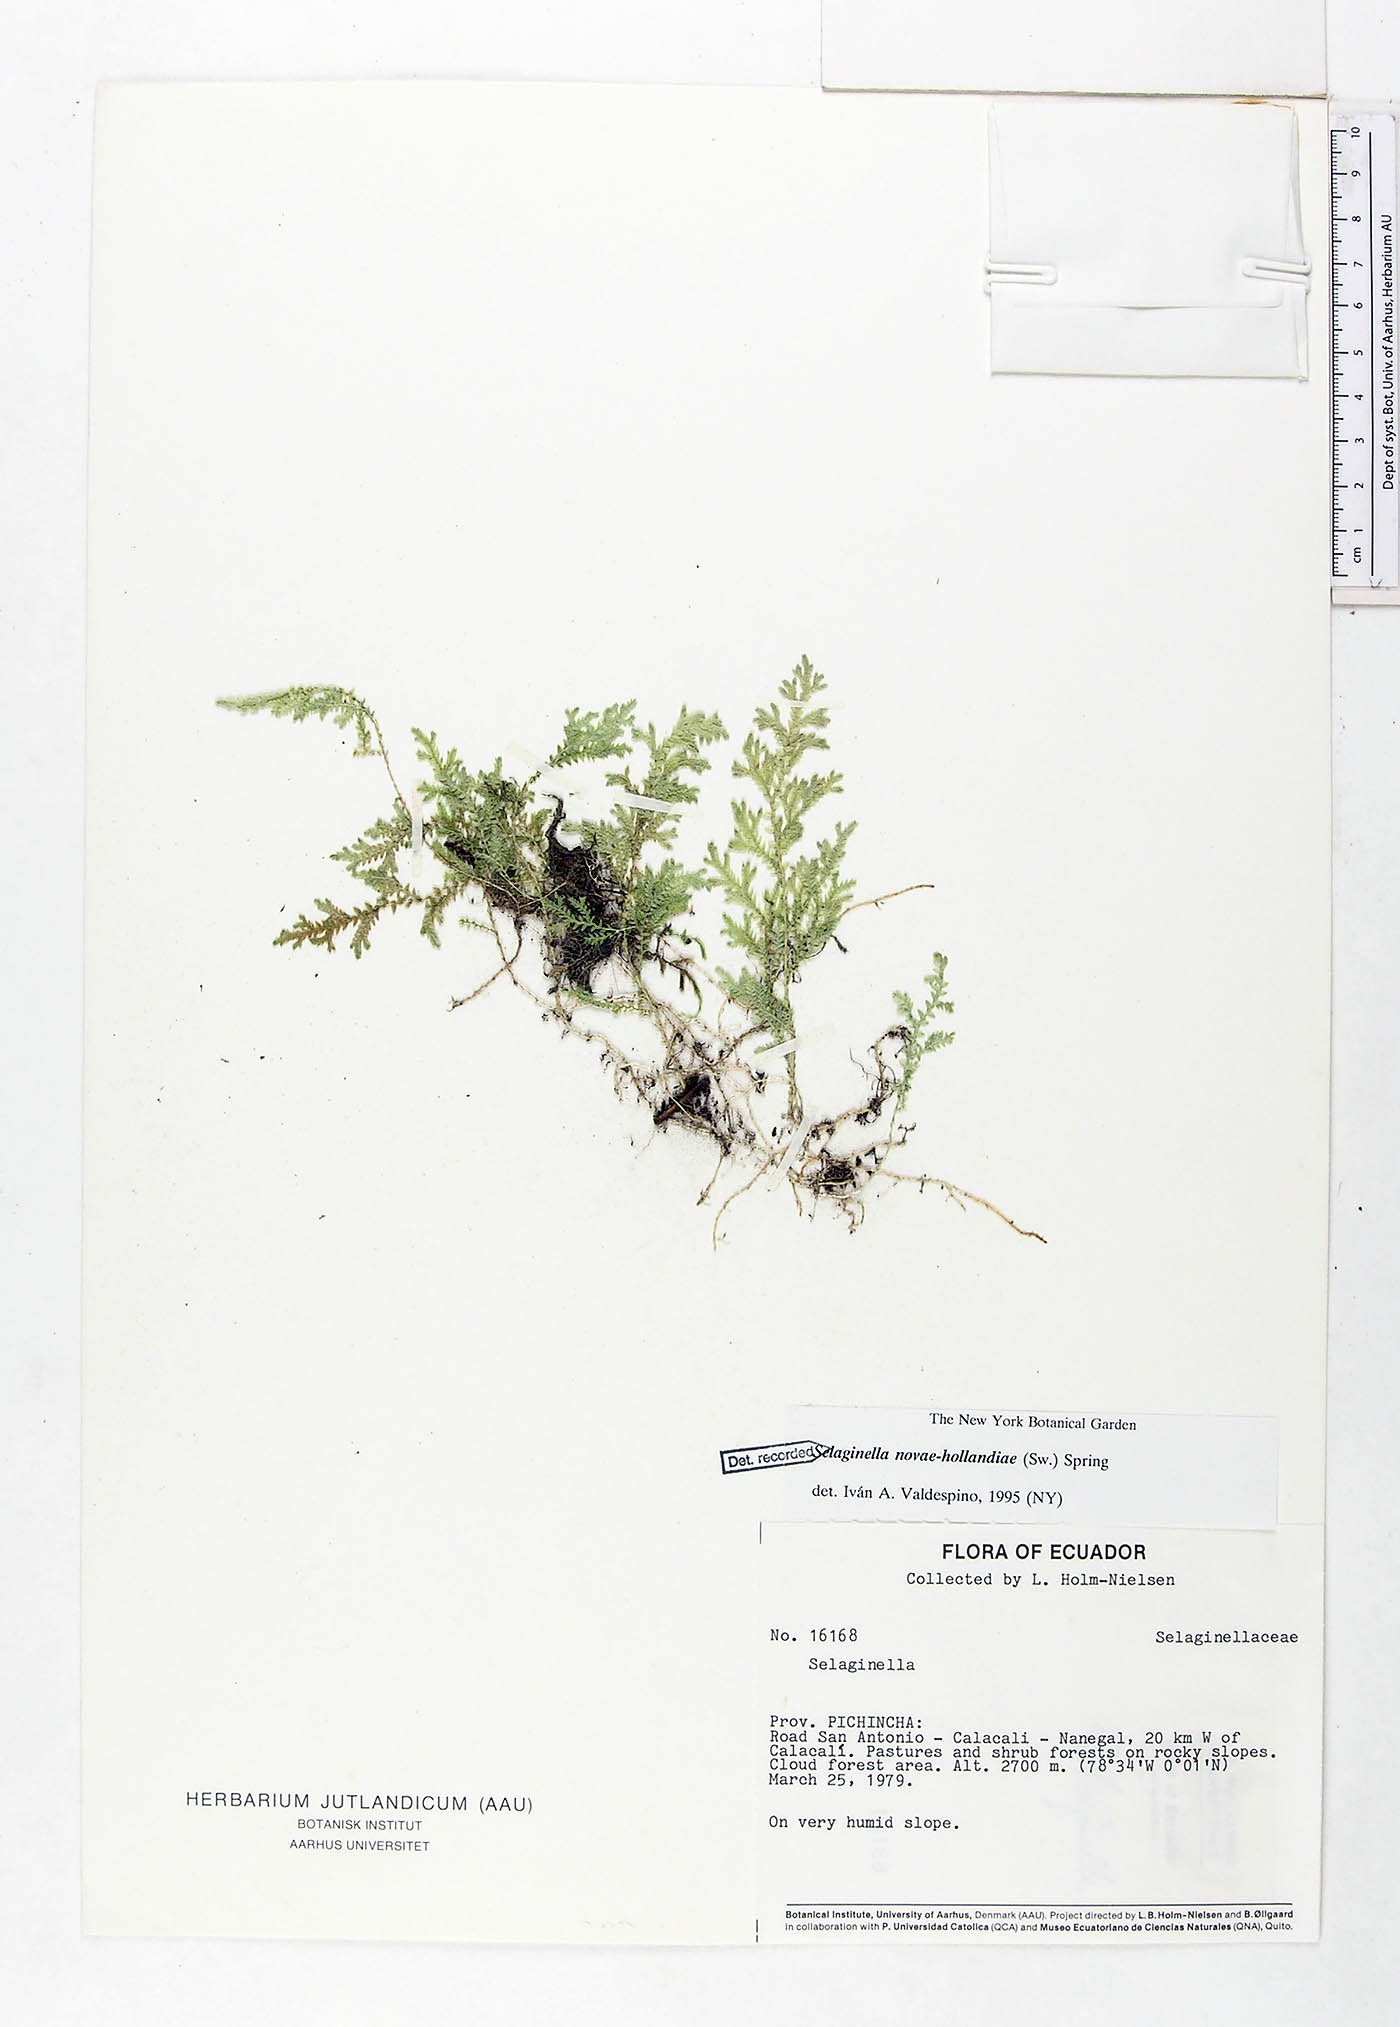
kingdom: Plantae
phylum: Tracheophyta
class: Lycopodiopsida
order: Selaginellales
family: Selaginellaceae
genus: Selaginella
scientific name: Selaginella novae-hollandiae
